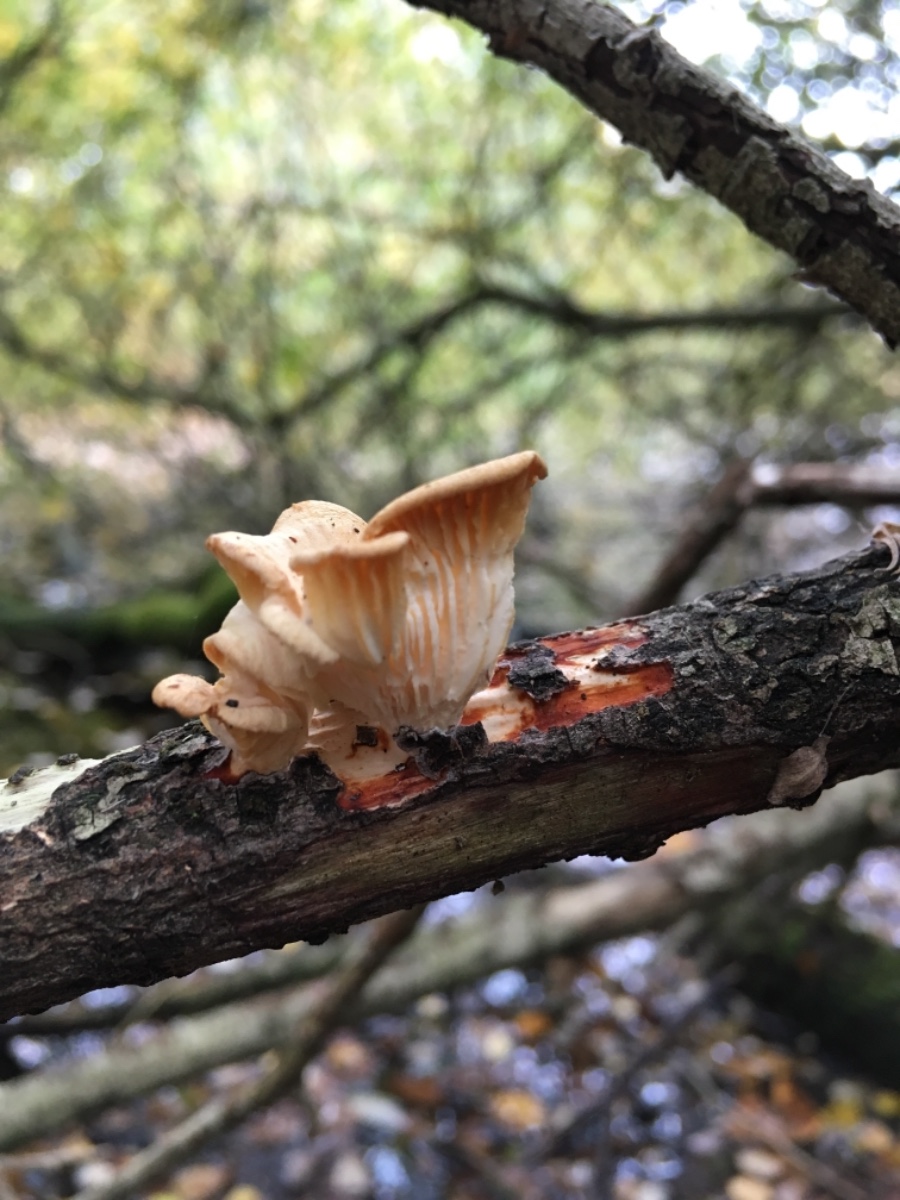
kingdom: Fungi
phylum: Basidiomycota
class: Agaricomycetes
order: Polyporales
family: Polyporaceae
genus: Neofavolus
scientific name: Neofavolus suavissimus
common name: anishat
